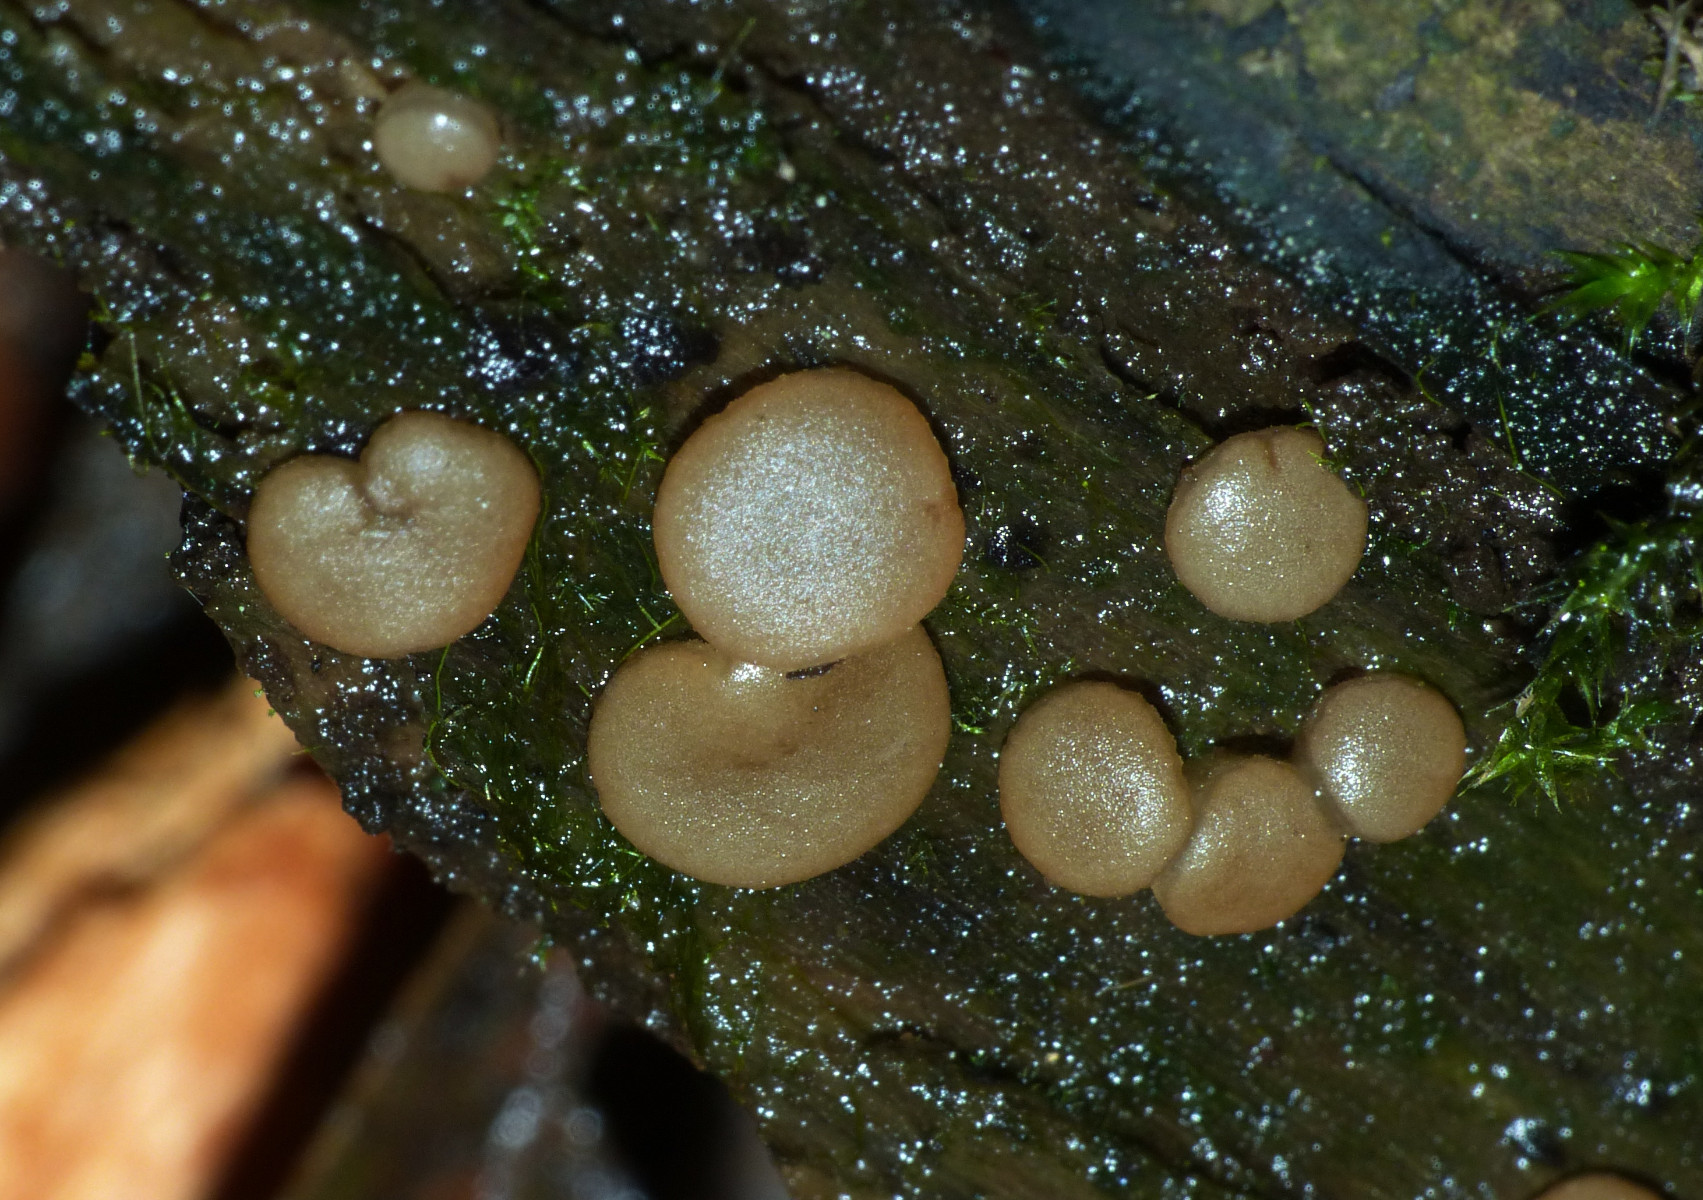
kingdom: Fungi
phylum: Ascomycota
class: Pezizomycetes
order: Pezizales
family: Pezizaceae
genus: Adelphella
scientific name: Adelphella babingtonii
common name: almindelig bækbæger
